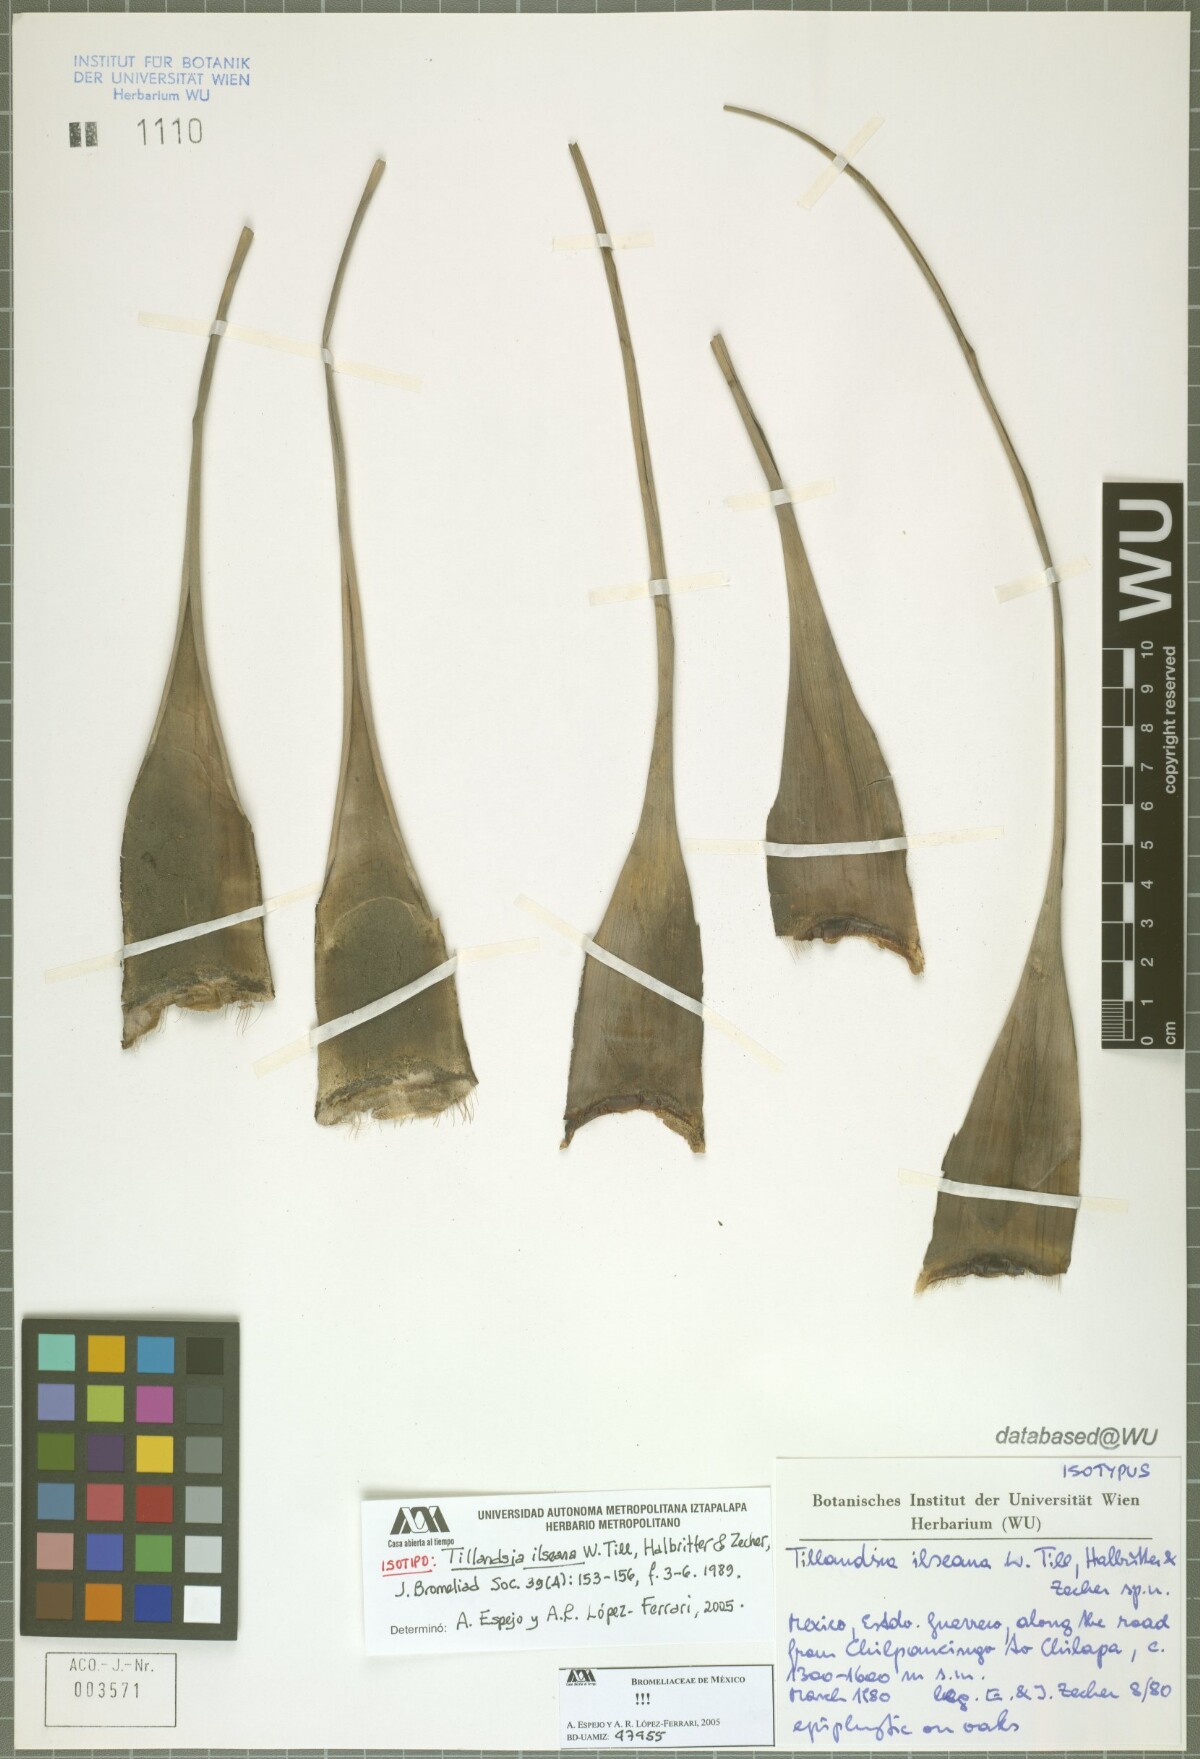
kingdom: Plantae
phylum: Tracheophyta
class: Liliopsida
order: Poales
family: Bromeliaceae
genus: Tillandsia
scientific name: Tillandsia ilseana
